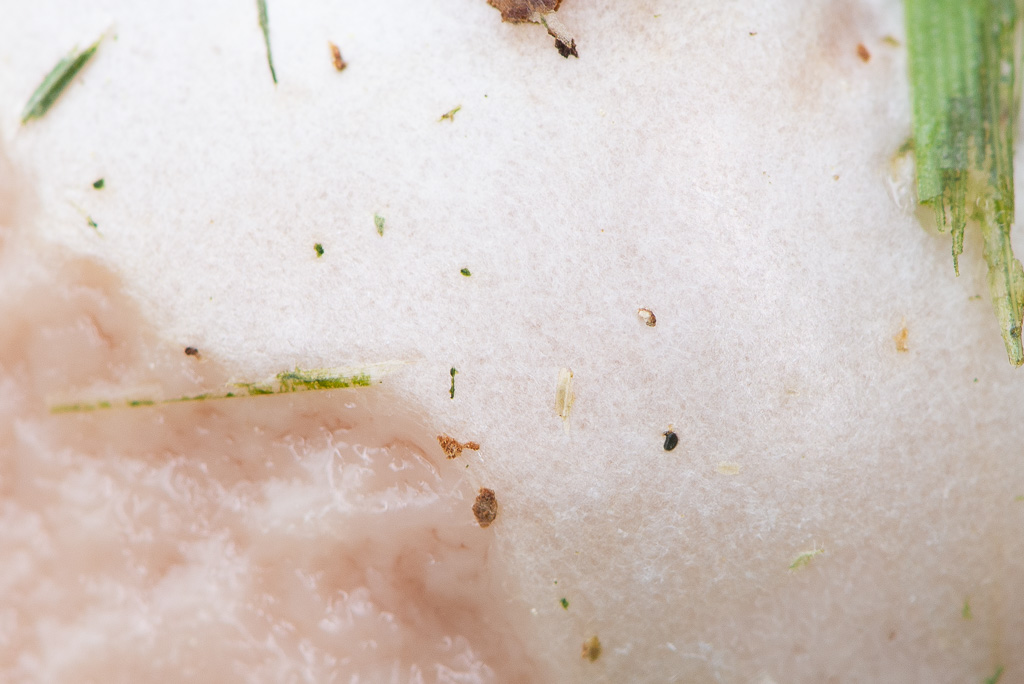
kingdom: Protozoa
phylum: Mycetozoa
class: Myxomycetes
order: Cribrariales
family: Tubiferaceae
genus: Reticularia
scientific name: Reticularia lycoperdon
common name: skinnende støvpude
